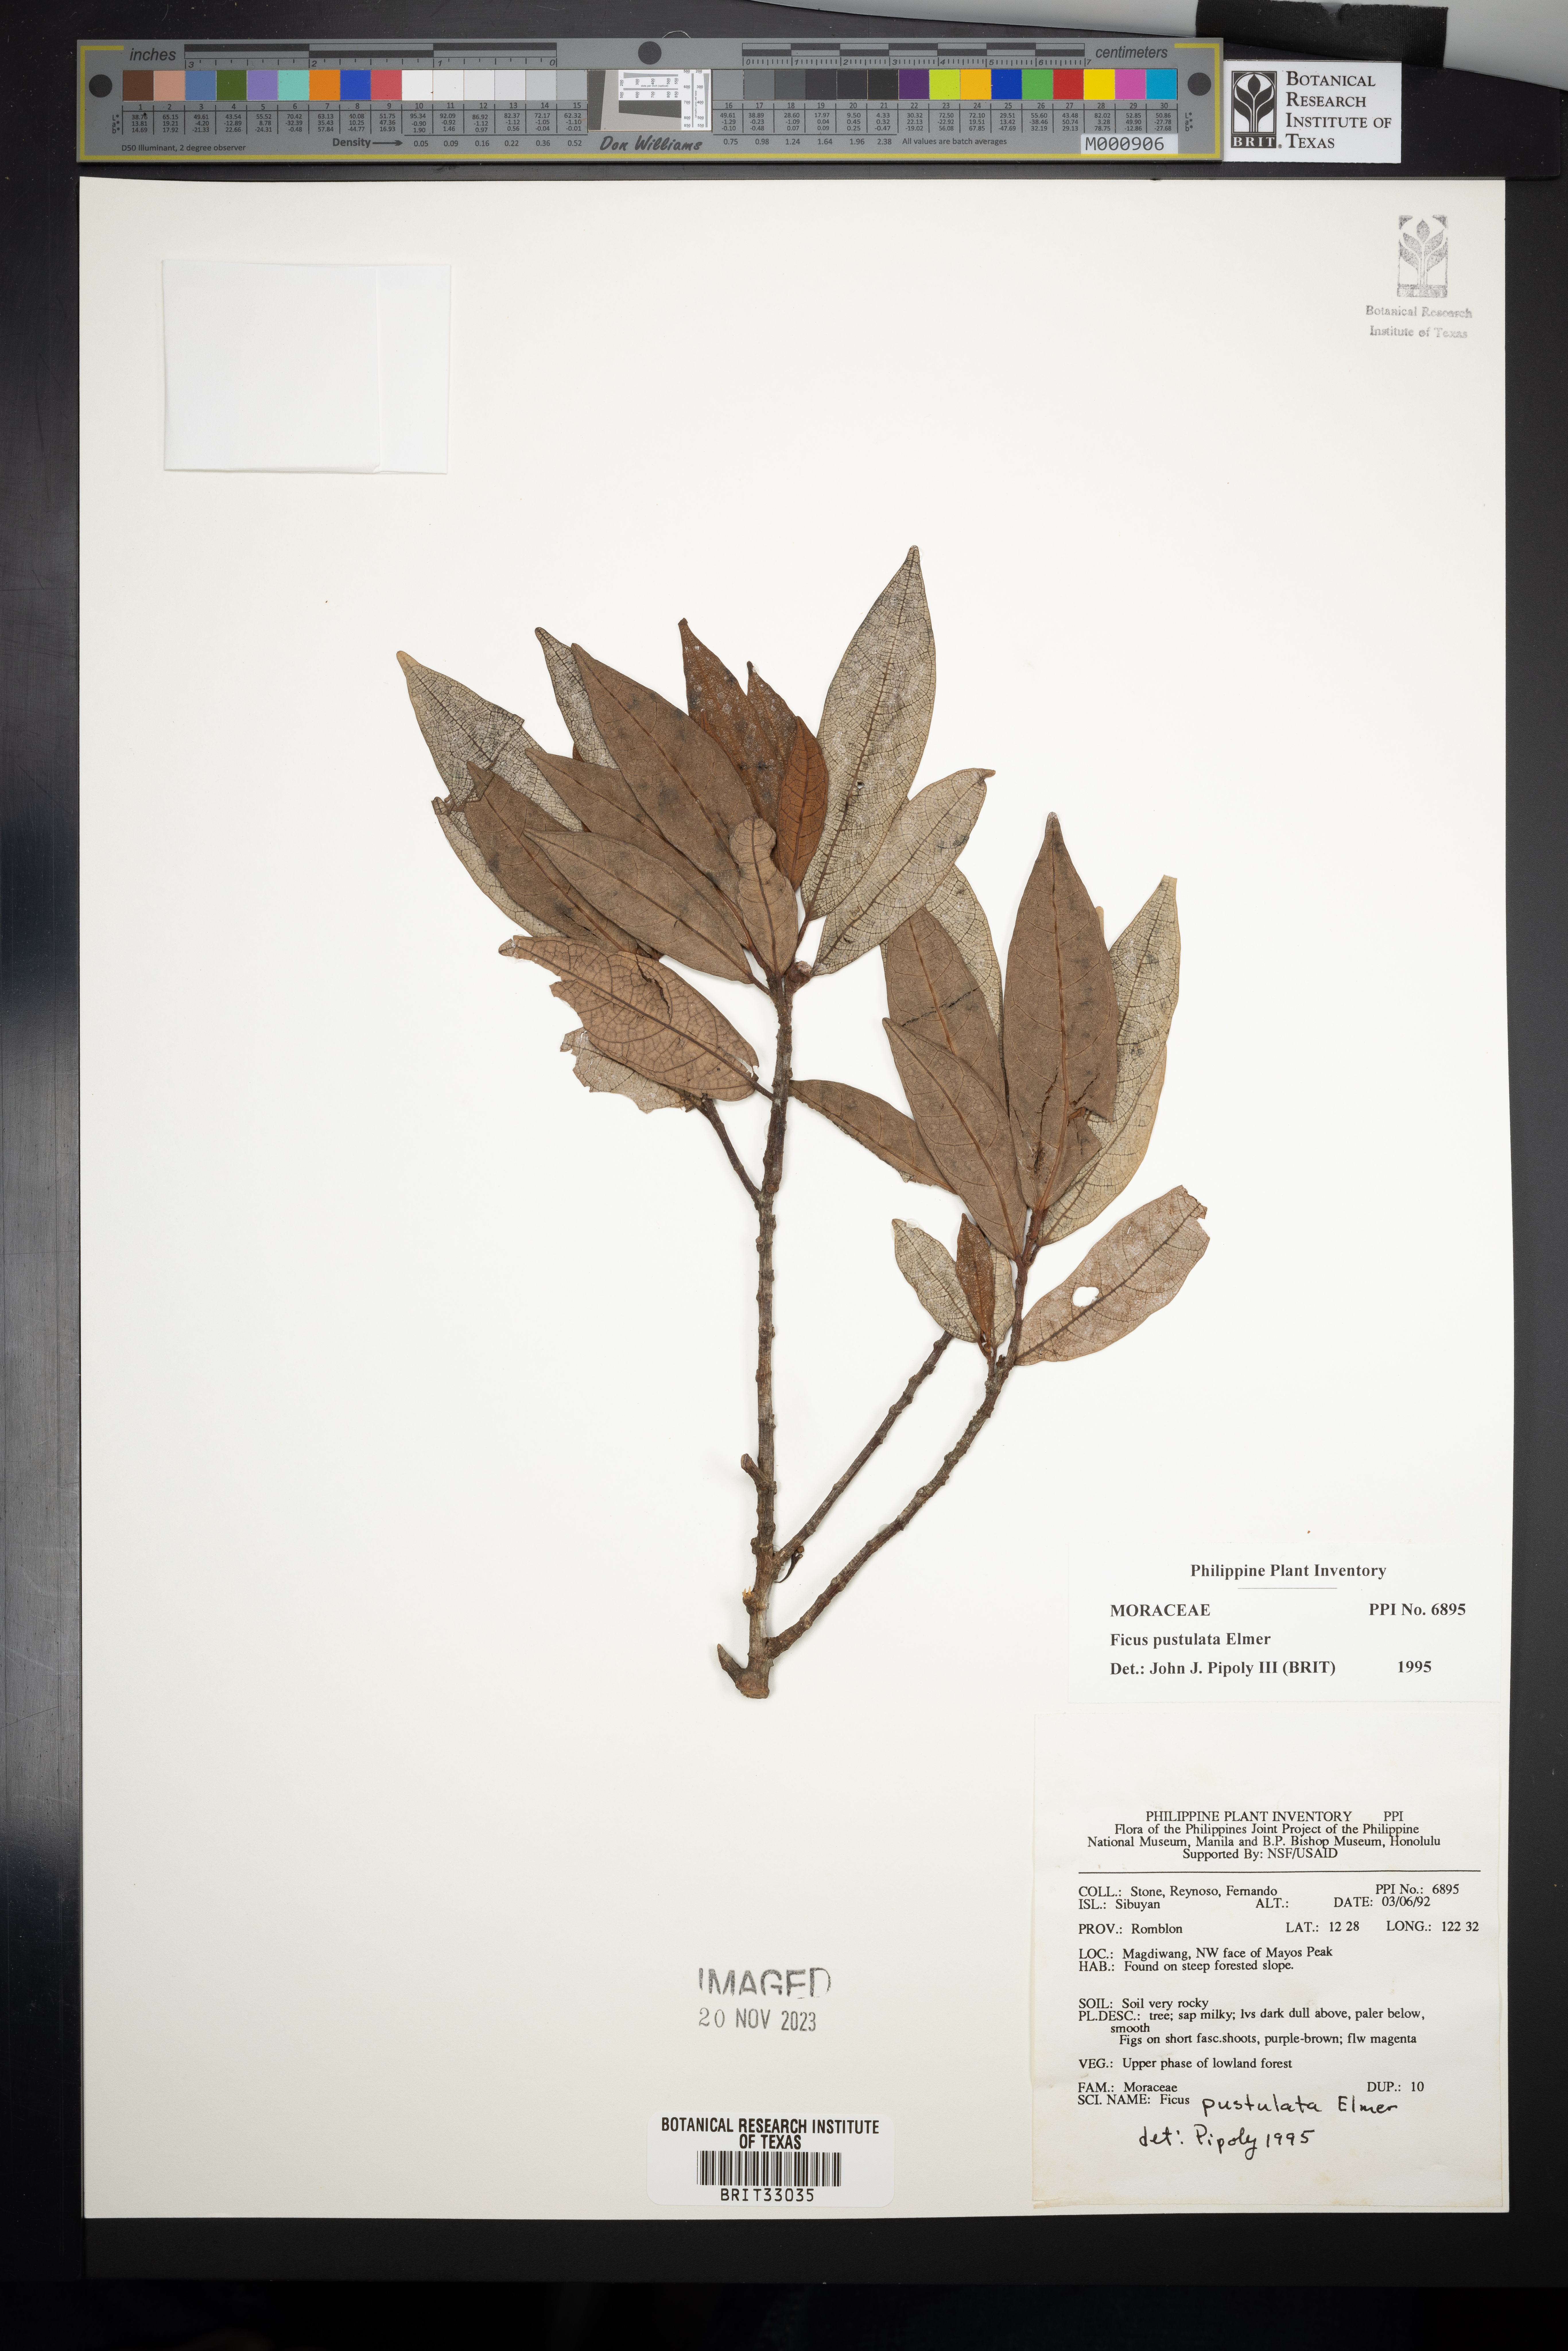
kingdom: Plantae
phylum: Tracheophyta
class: Magnoliopsida
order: Rosales
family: Moraceae
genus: Ficus
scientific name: Ficus pustulata
